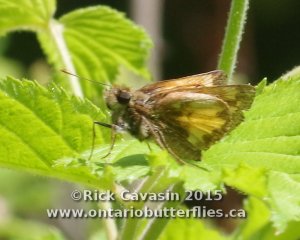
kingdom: Animalia
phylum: Arthropoda
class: Insecta
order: Lepidoptera
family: Hesperiidae
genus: Lon
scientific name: Lon hobomok
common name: Hobomok Skipper
